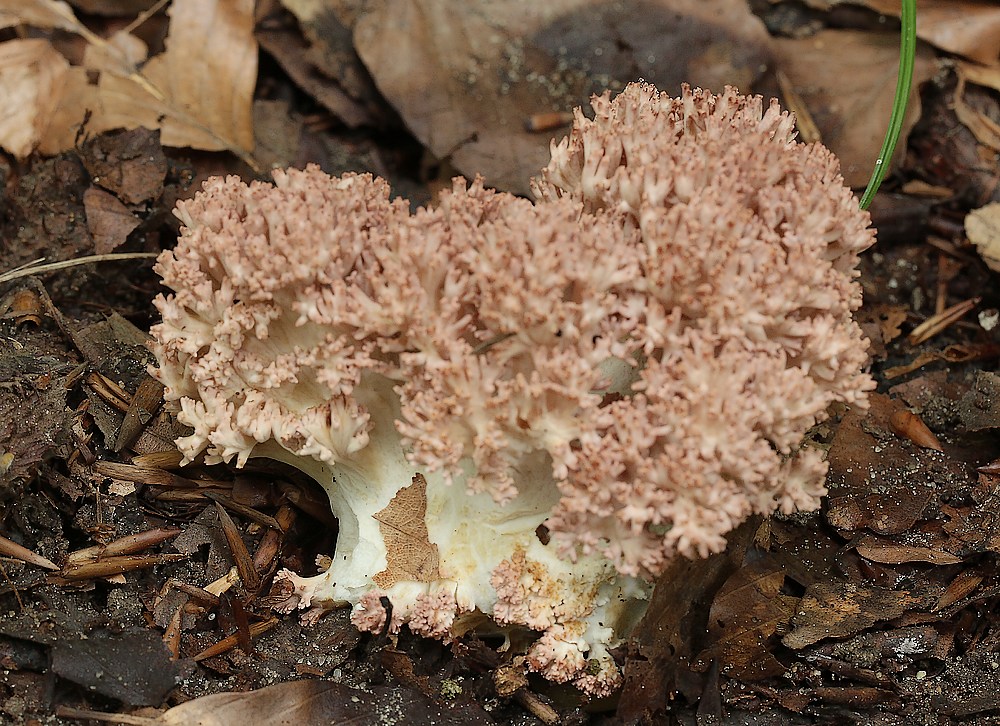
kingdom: Fungi
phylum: Basidiomycota
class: Agaricomycetes
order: Gomphales
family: Gomphaceae
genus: Ramaria
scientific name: Ramaria botrytis
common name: drue-koralsvamp
